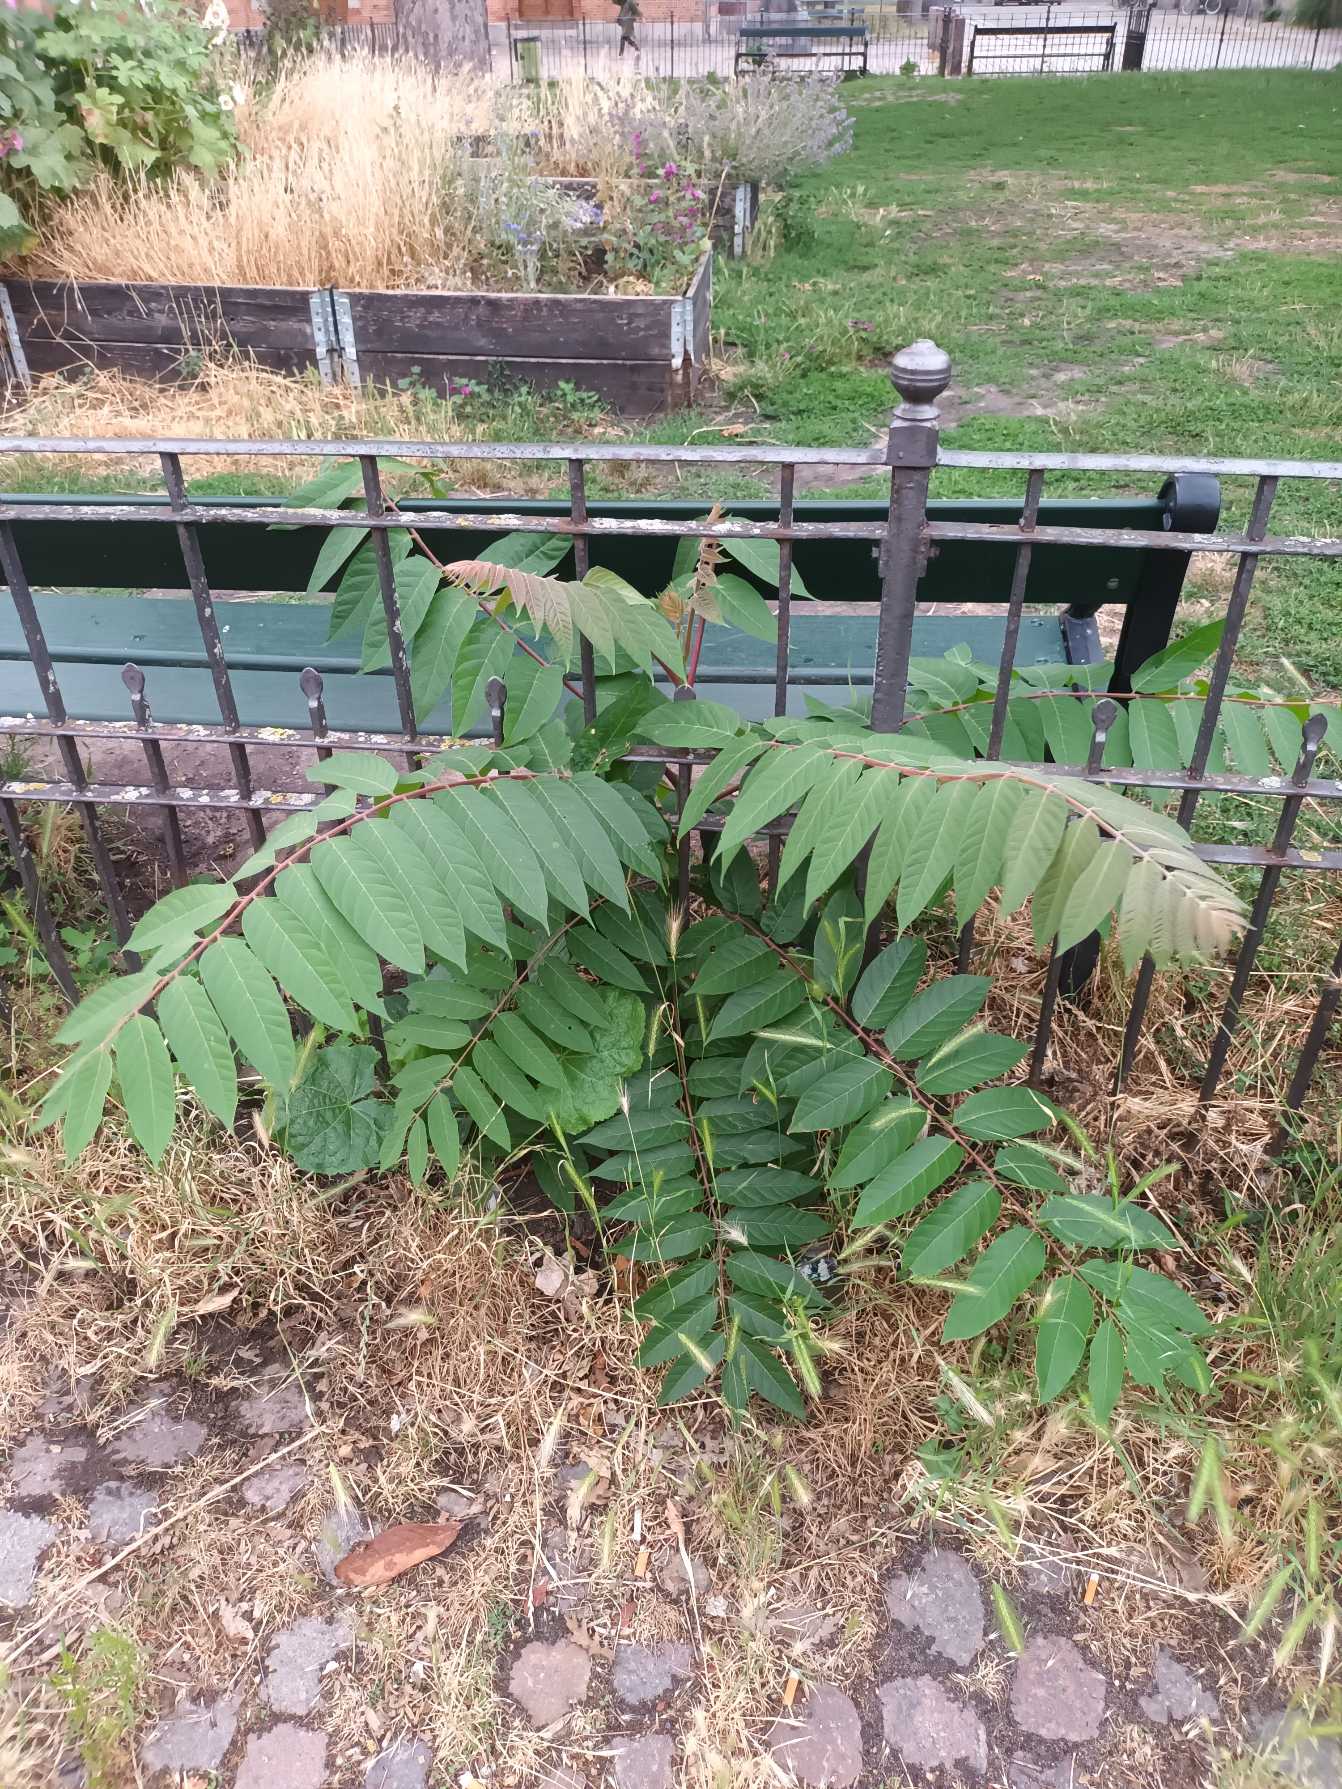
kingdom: Plantae
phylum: Tracheophyta
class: Magnoliopsida
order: Sapindales
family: Simaroubaceae
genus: Ailanthus
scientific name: Ailanthus altissima
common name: Skyrækker
